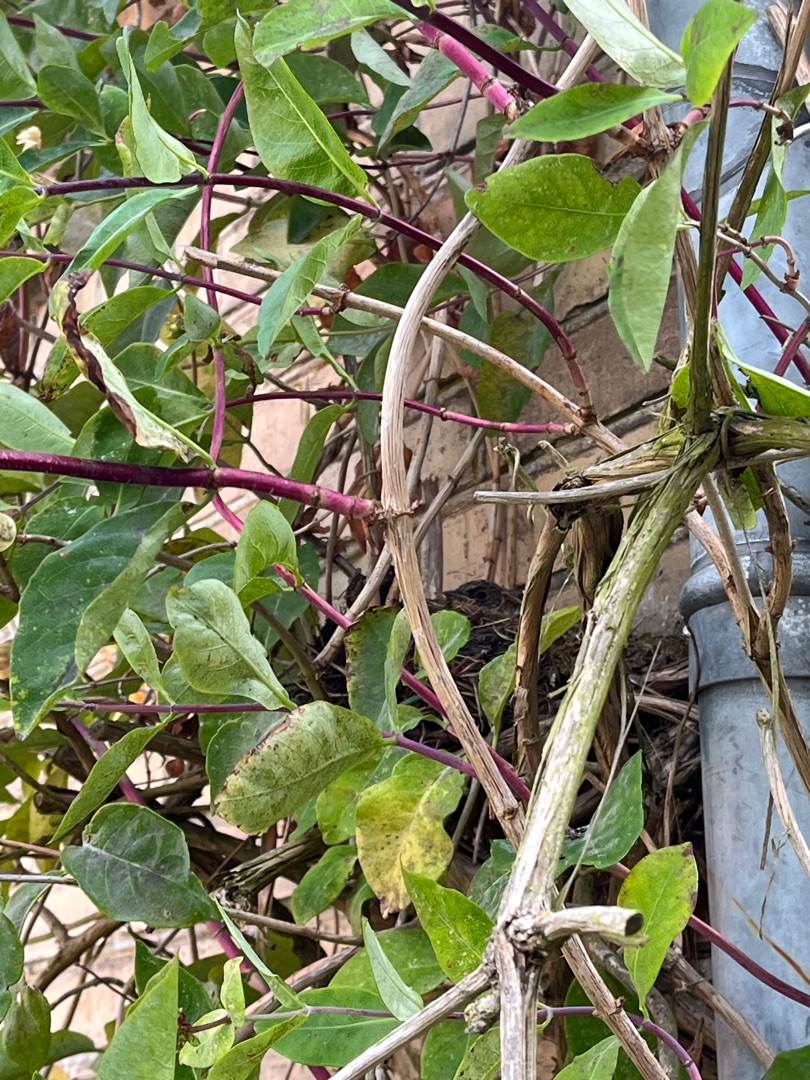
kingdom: Animalia
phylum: Chordata
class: Aves
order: Passeriformes
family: Muscicapidae
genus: Muscicapa
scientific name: Muscicapa striata
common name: Grå fluesnapper
